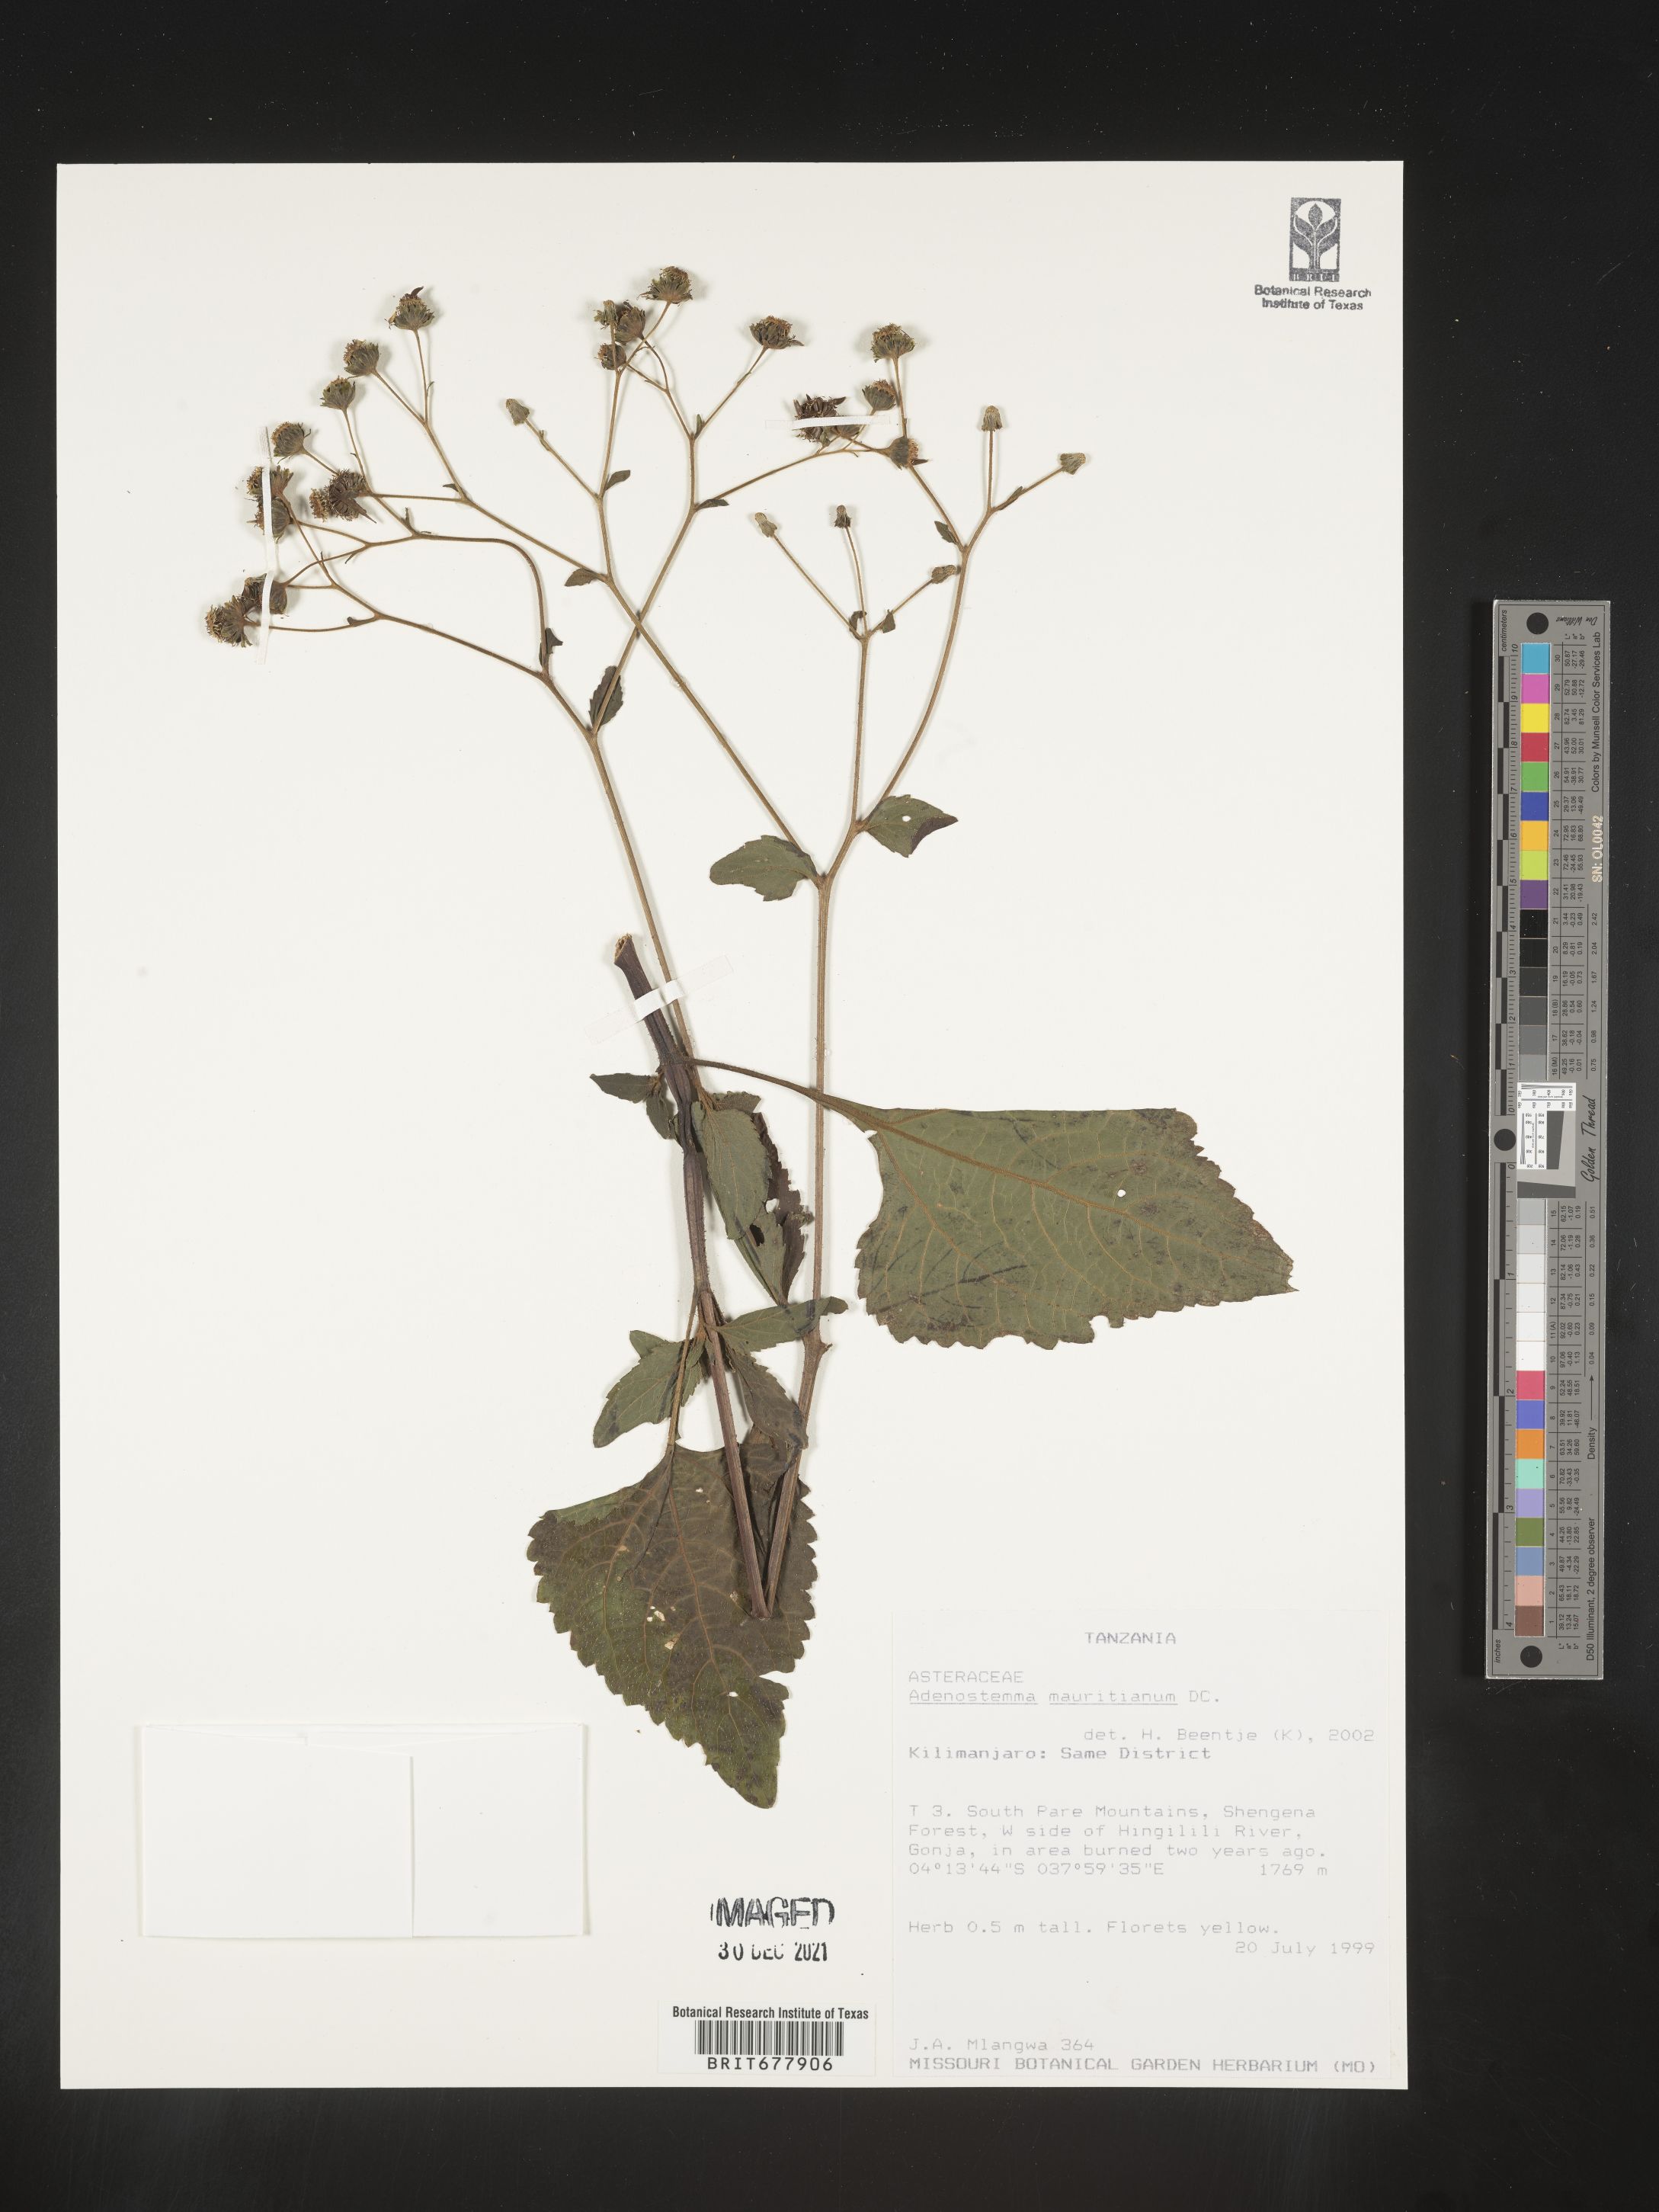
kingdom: Plantae
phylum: Tracheophyta
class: Magnoliopsida
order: Asterales
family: Asteraceae
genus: Adenostemma
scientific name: Adenostemma mauritianum
